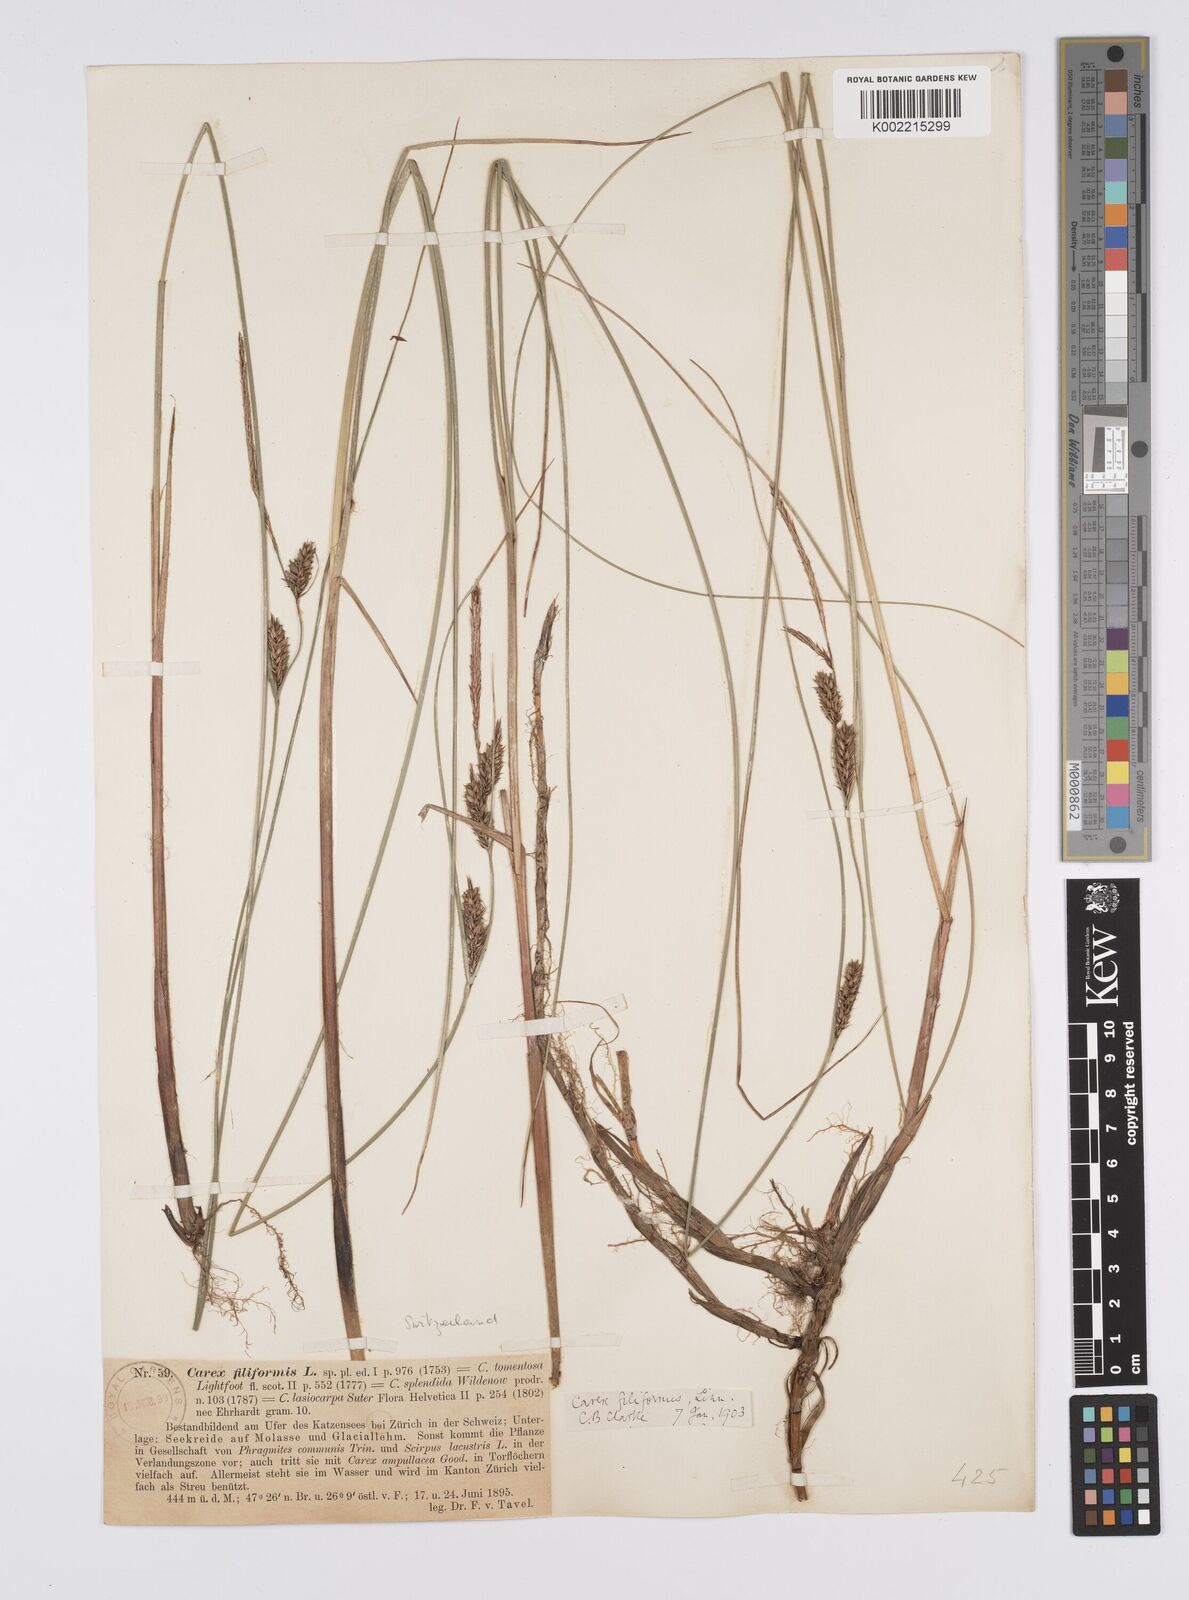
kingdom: Plantae
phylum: Tracheophyta
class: Liliopsida
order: Poales
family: Cyperaceae
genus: Carex
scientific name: Carex lasiocarpa
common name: Slender sedge
